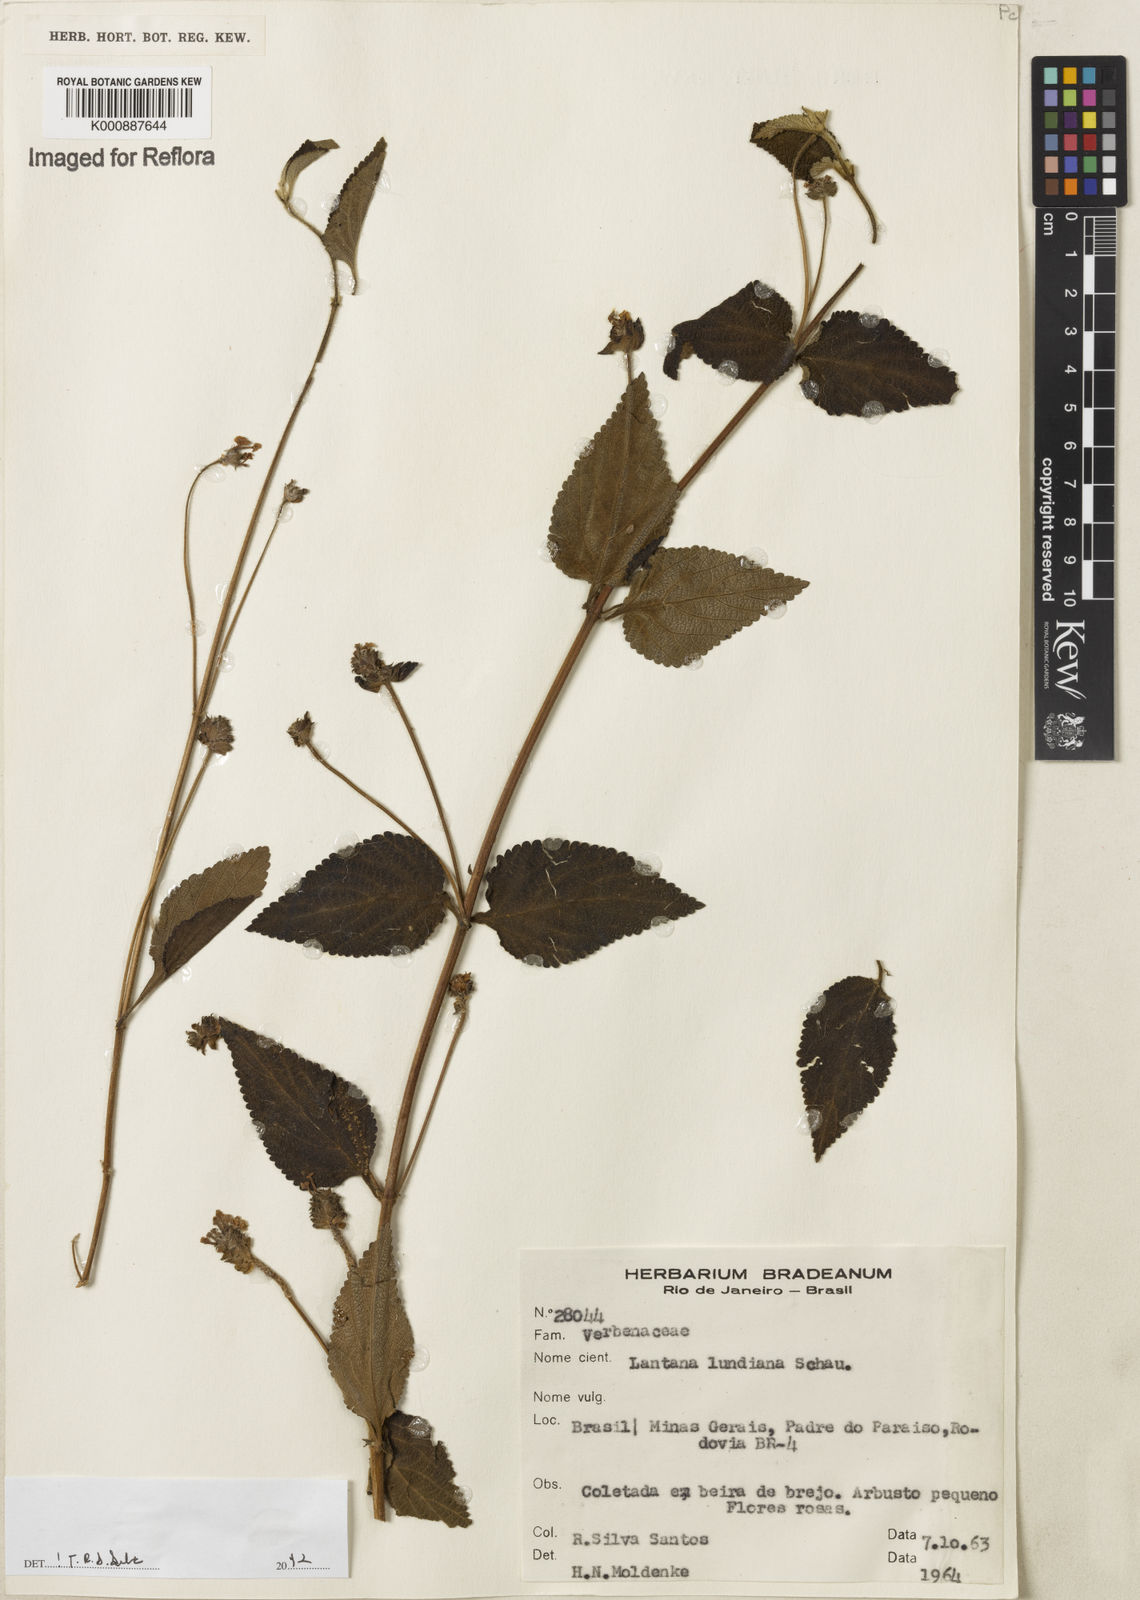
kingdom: Plantae
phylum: Tracheophyta
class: Magnoliopsida
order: Lamiales
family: Verbenaceae
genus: Lantana
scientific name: Lantana lundiana
